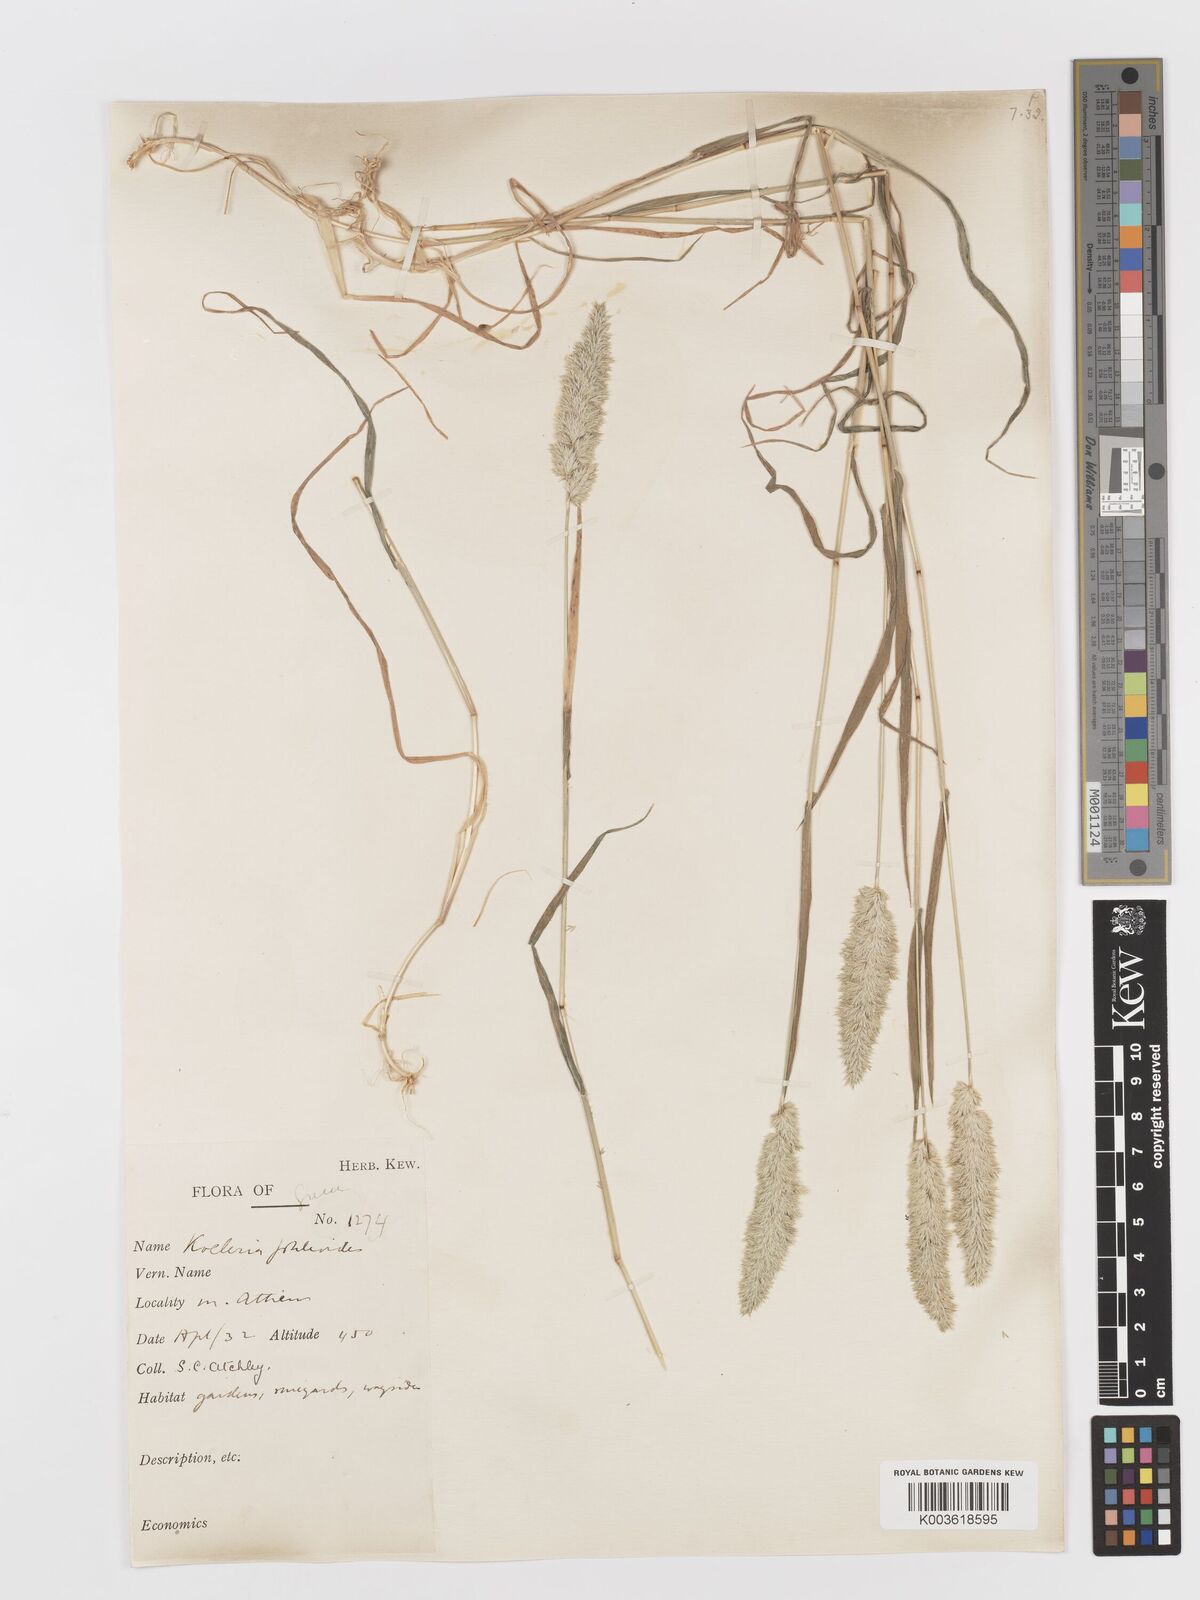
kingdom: Plantae
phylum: Tracheophyta
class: Liliopsida
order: Poales
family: Poaceae
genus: Rostraria
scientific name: Rostraria cristata
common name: Mediterranean hair-grass
